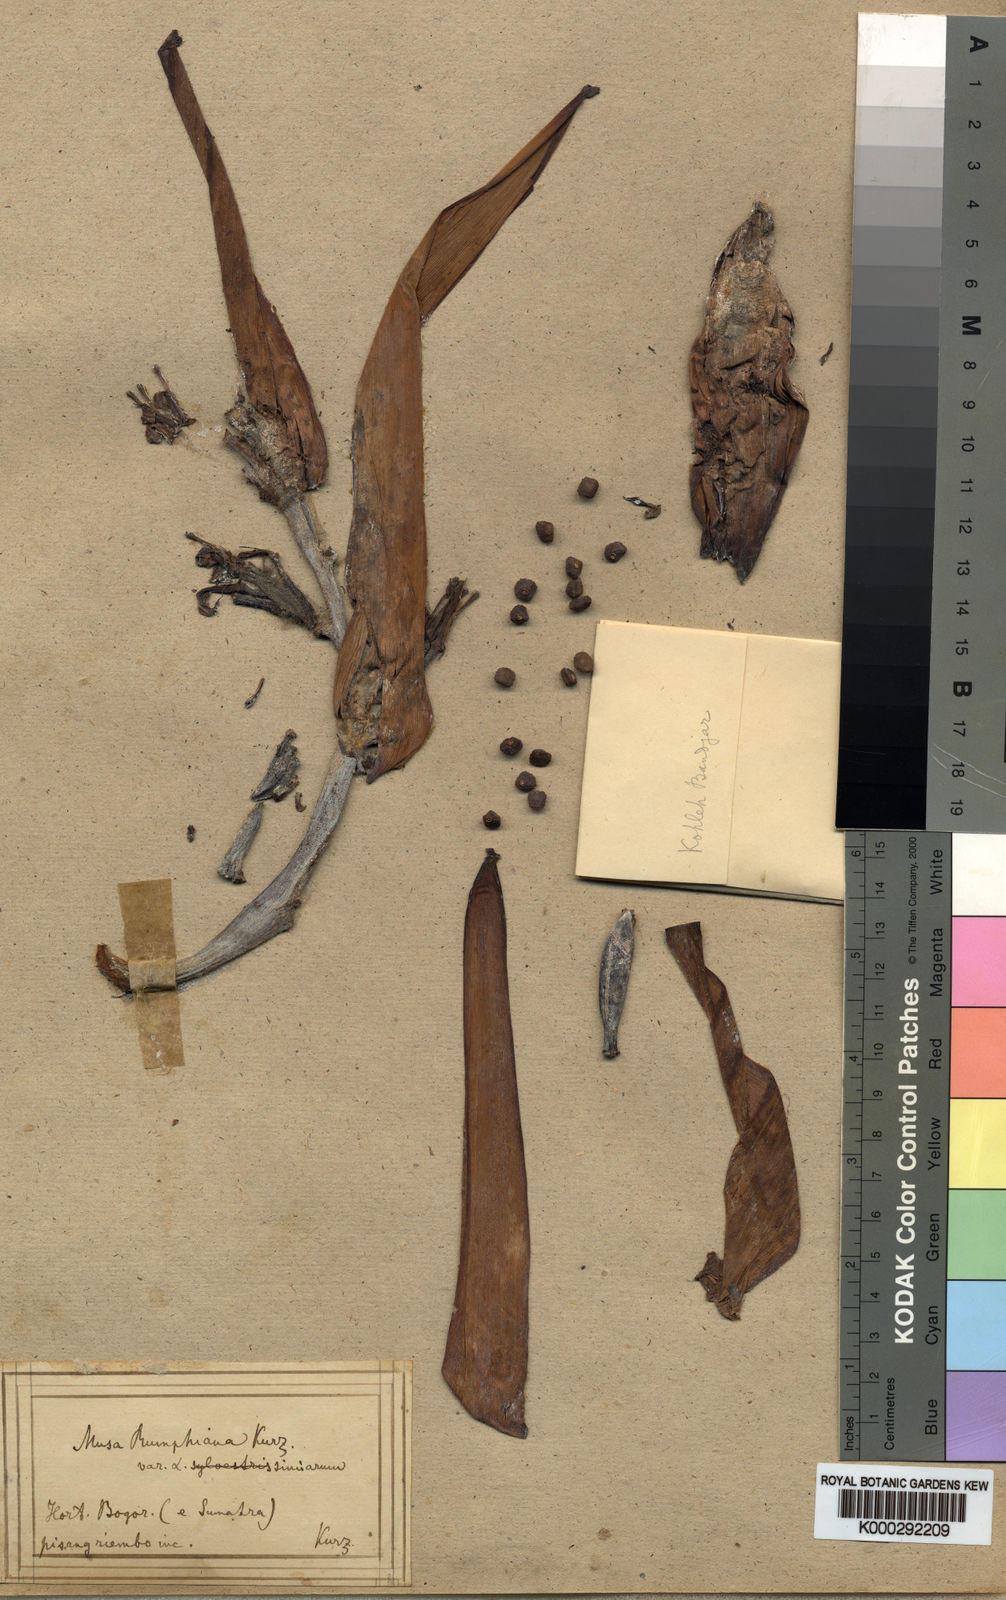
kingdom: Plantae
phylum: Tracheophyta
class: Liliopsida
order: Zingiberales
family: Musaceae
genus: Musa
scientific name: Musa acuminata
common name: Edible banana
